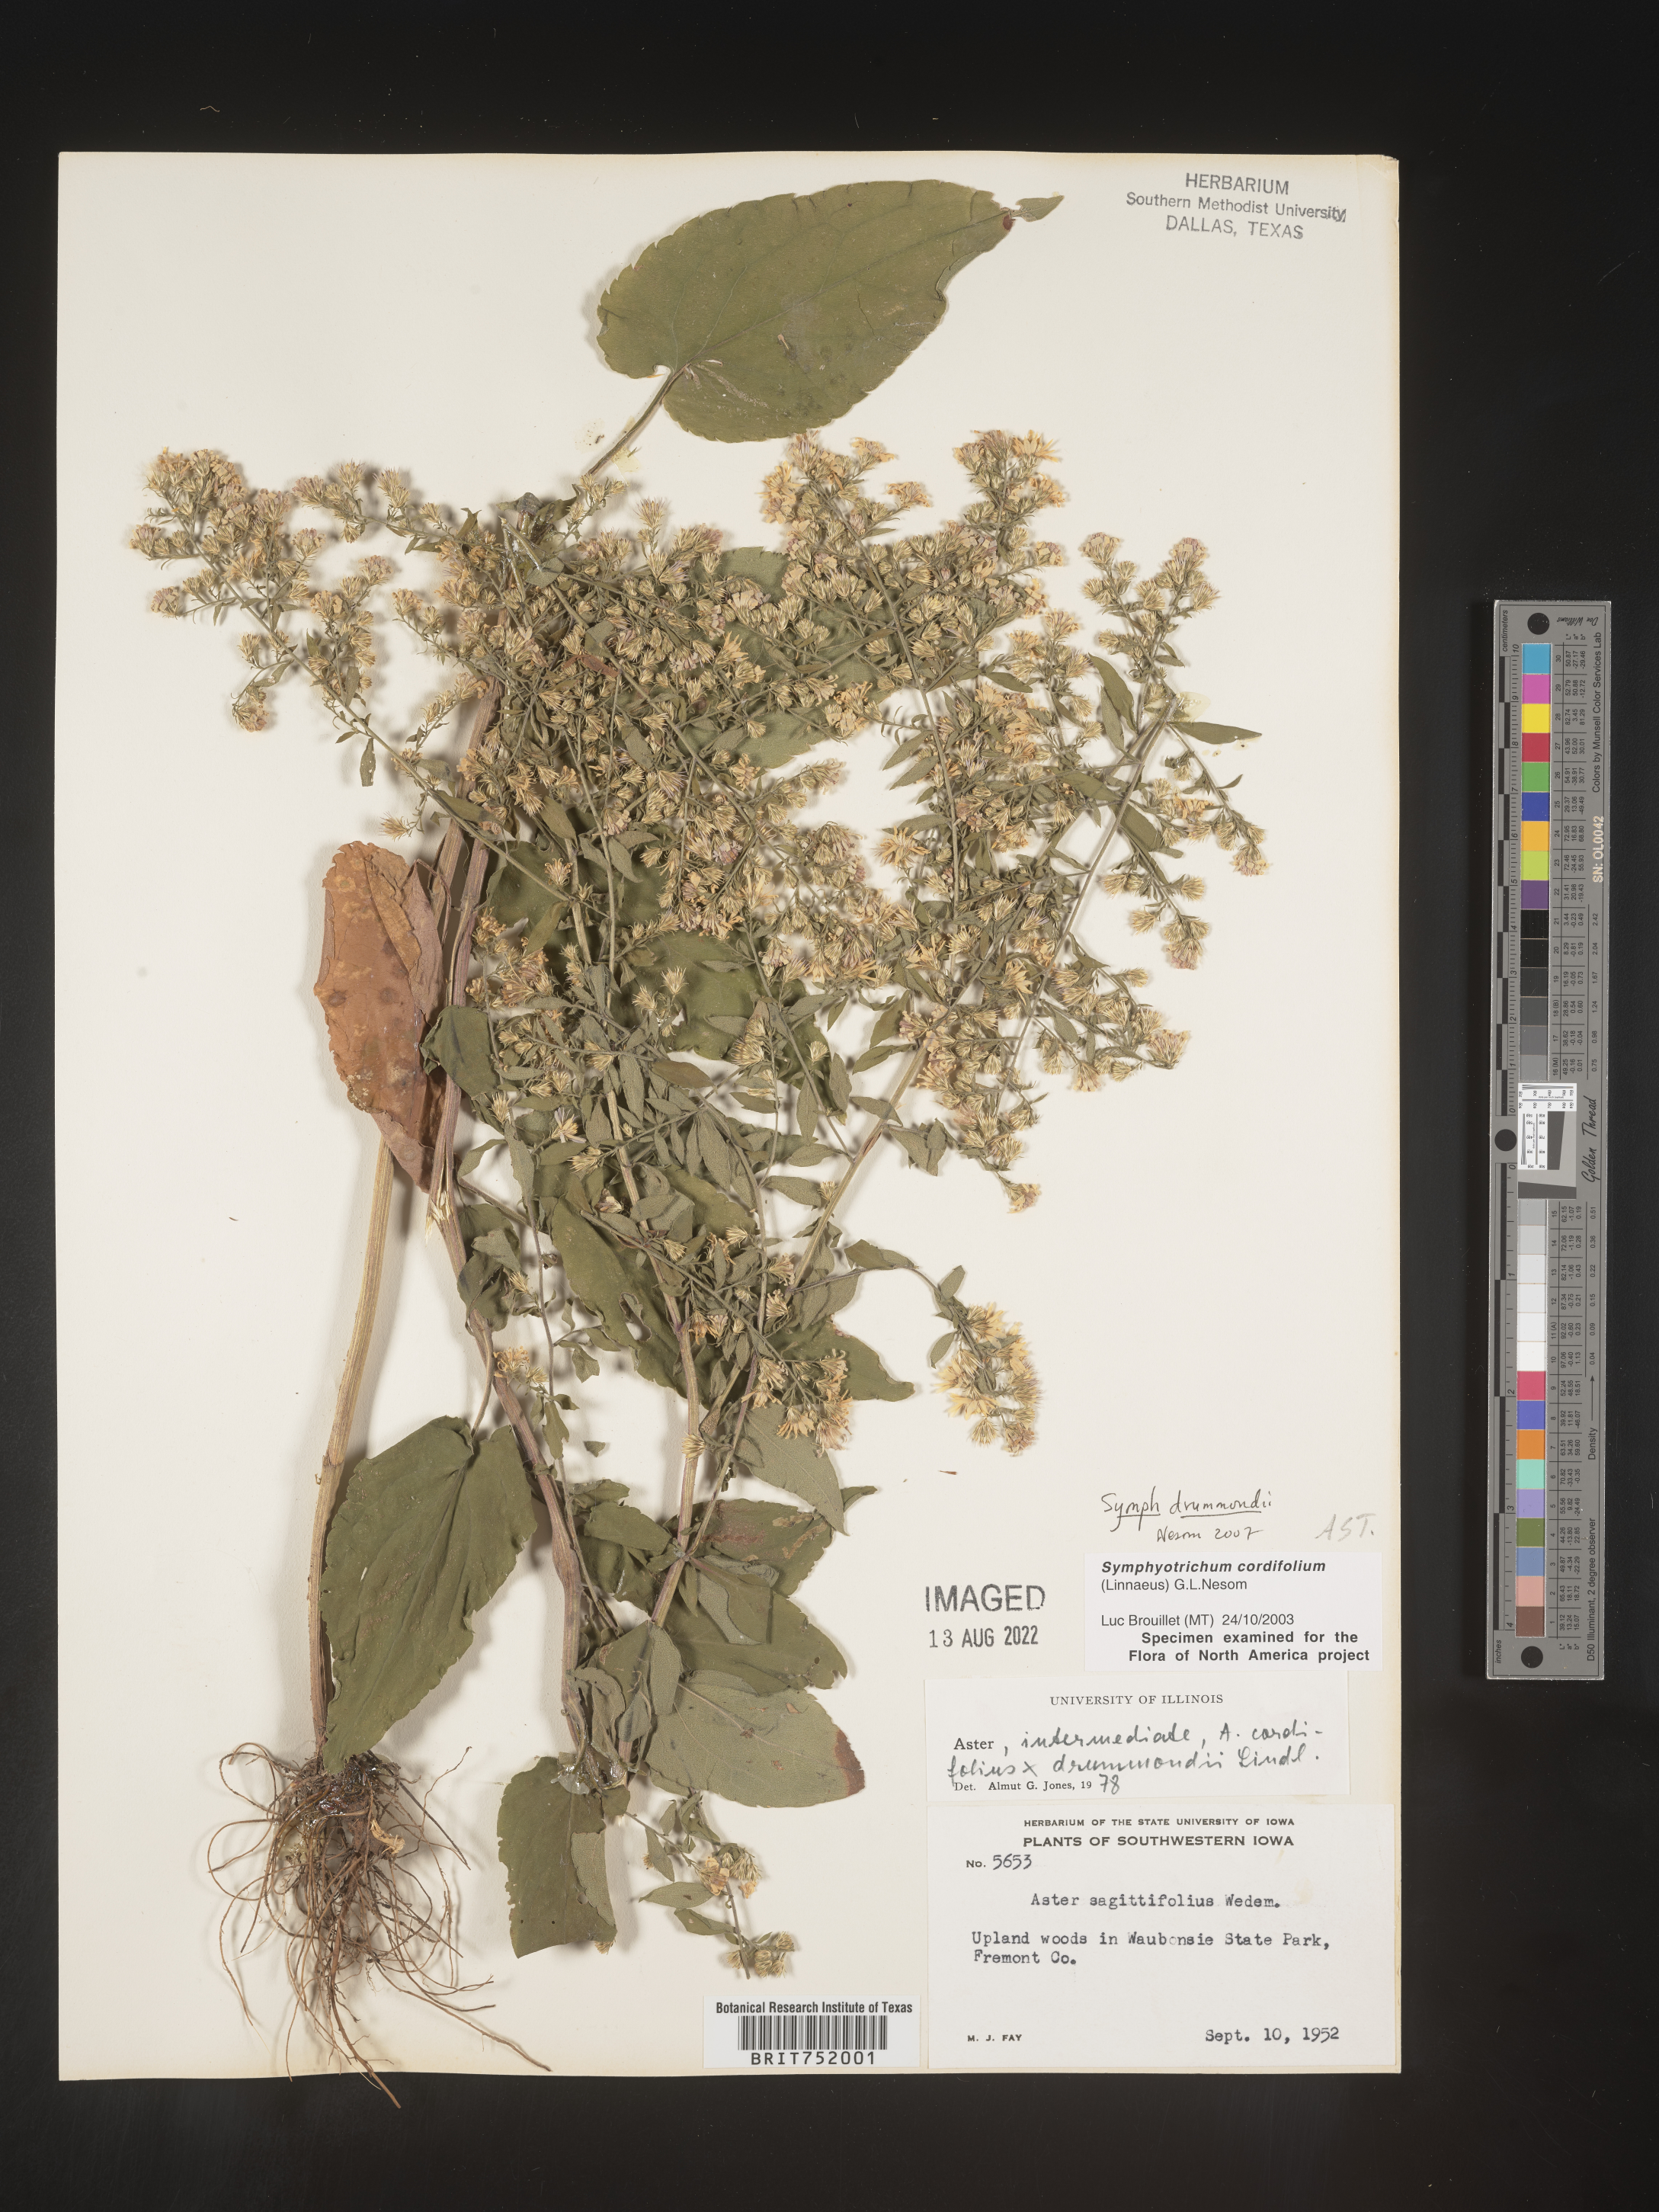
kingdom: Plantae
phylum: Tracheophyta
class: Magnoliopsida
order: Asterales
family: Asteraceae
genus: Symphyotrichum
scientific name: Symphyotrichum drummondii
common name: Drummond's aster
